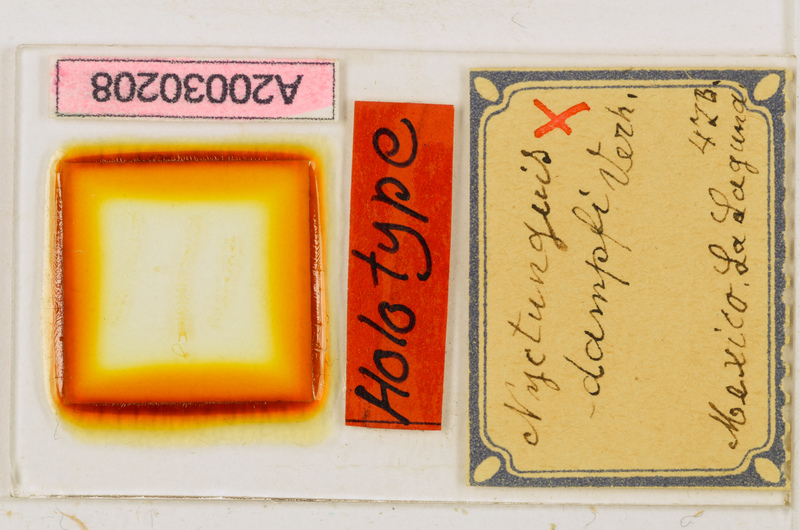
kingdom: Animalia
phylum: Arthropoda
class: Chilopoda
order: Geophilomorpha
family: Schendylidae
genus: Nyctunguis
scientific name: Nyctunguis dampfi
